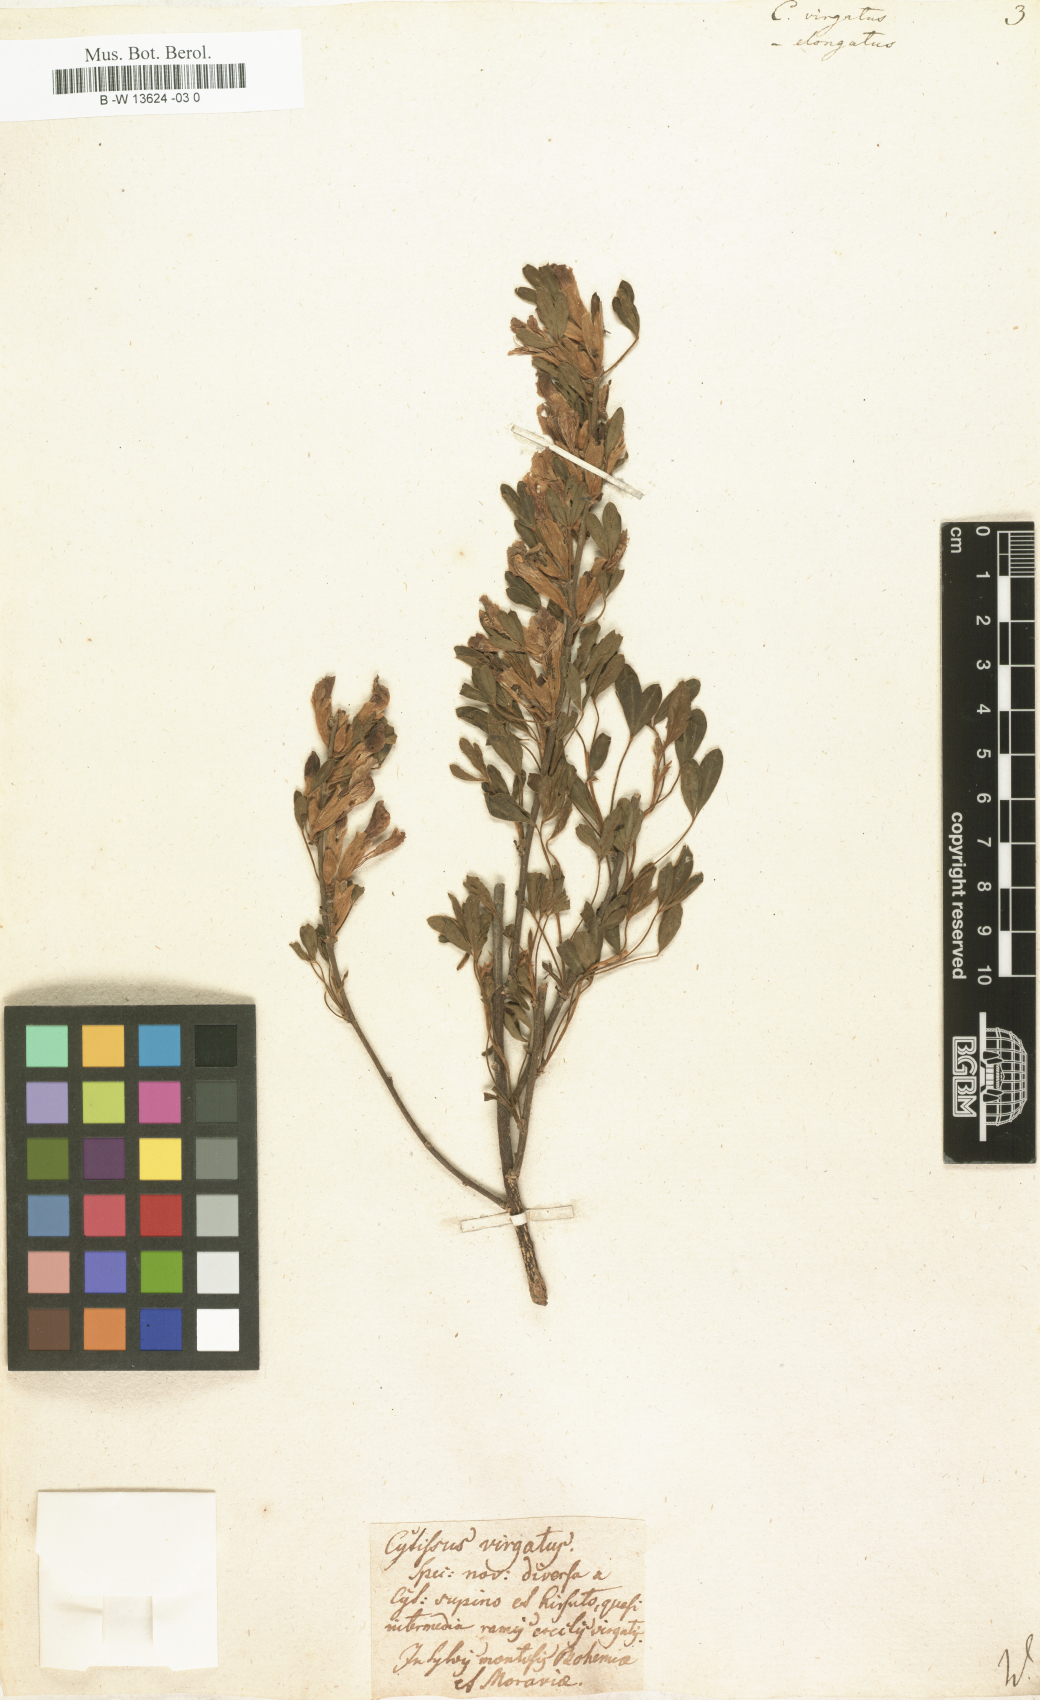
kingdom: Plantae
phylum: Tracheophyta
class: Magnoliopsida
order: Fabales
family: Fabaceae
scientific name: Fabaceae
